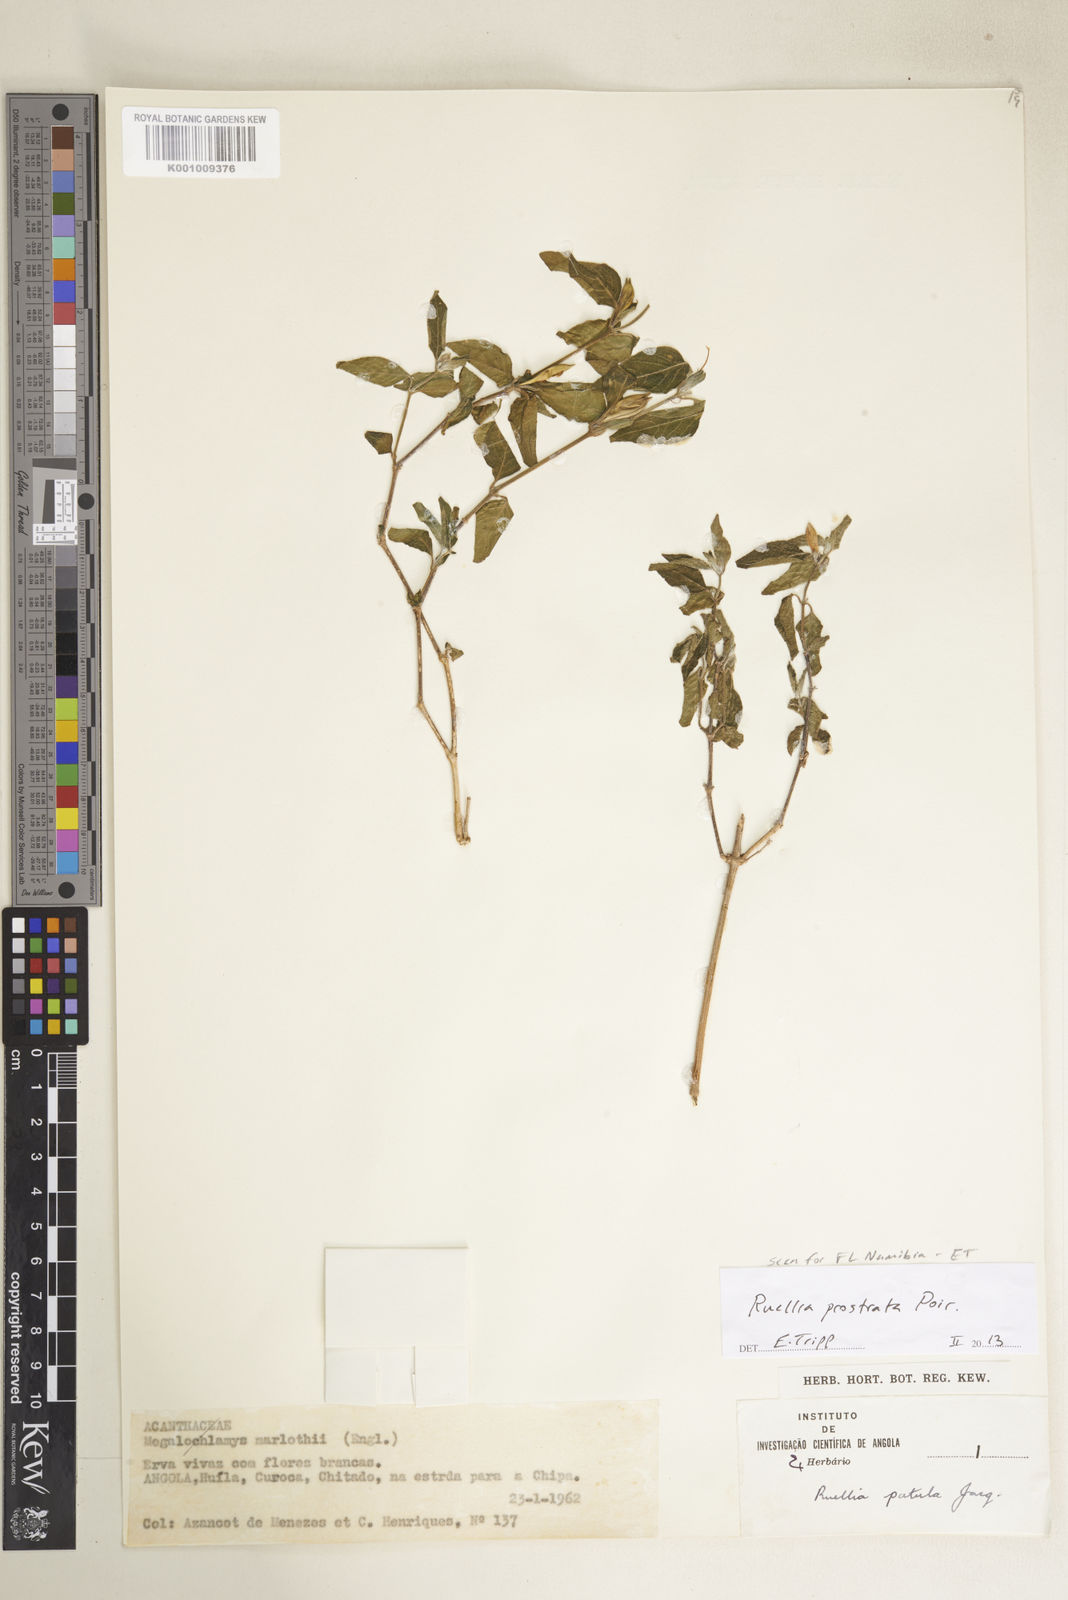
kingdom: Plantae
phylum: Tracheophyta
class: Magnoliopsida
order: Lamiales
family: Acanthaceae
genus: Ruellia
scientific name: Ruellia prostrata
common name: Prostrate wild petunia
